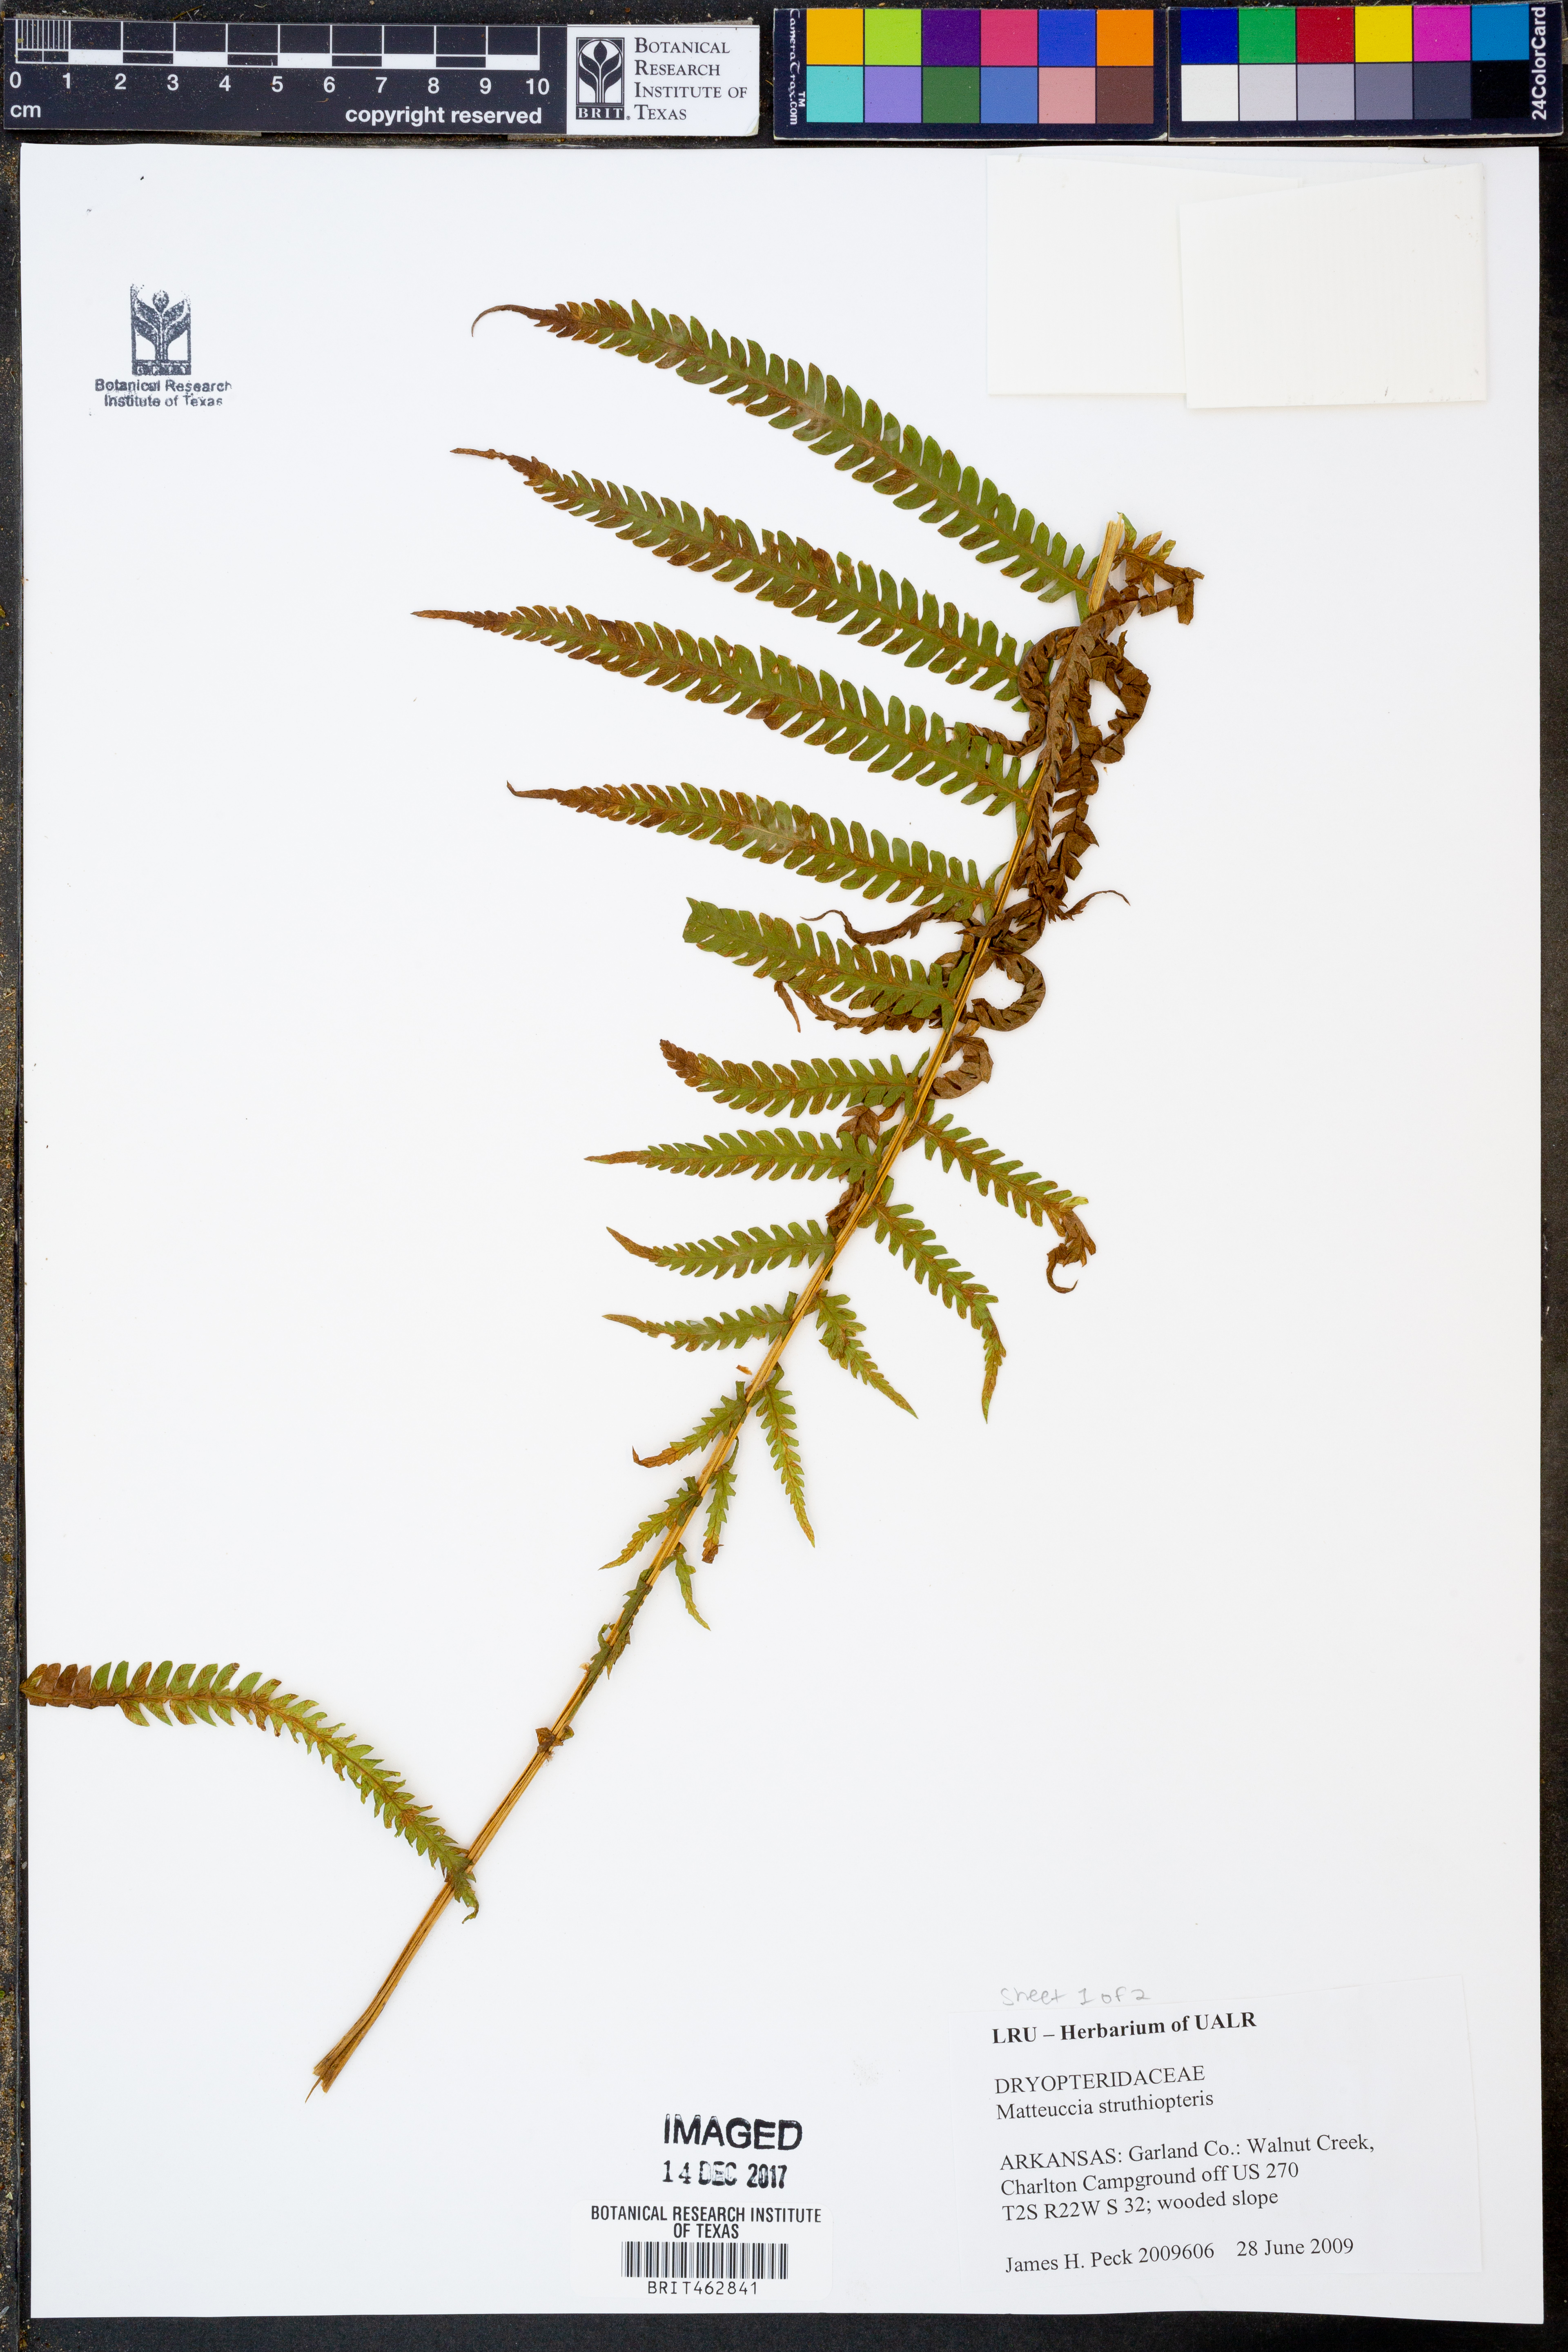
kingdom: Plantae
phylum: Tracheophyta
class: Polypodiopsida
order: Polypodiales
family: Onocleaceae
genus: Matteuccia
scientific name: Matteuccia struthiopteris
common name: Ostrich fern
